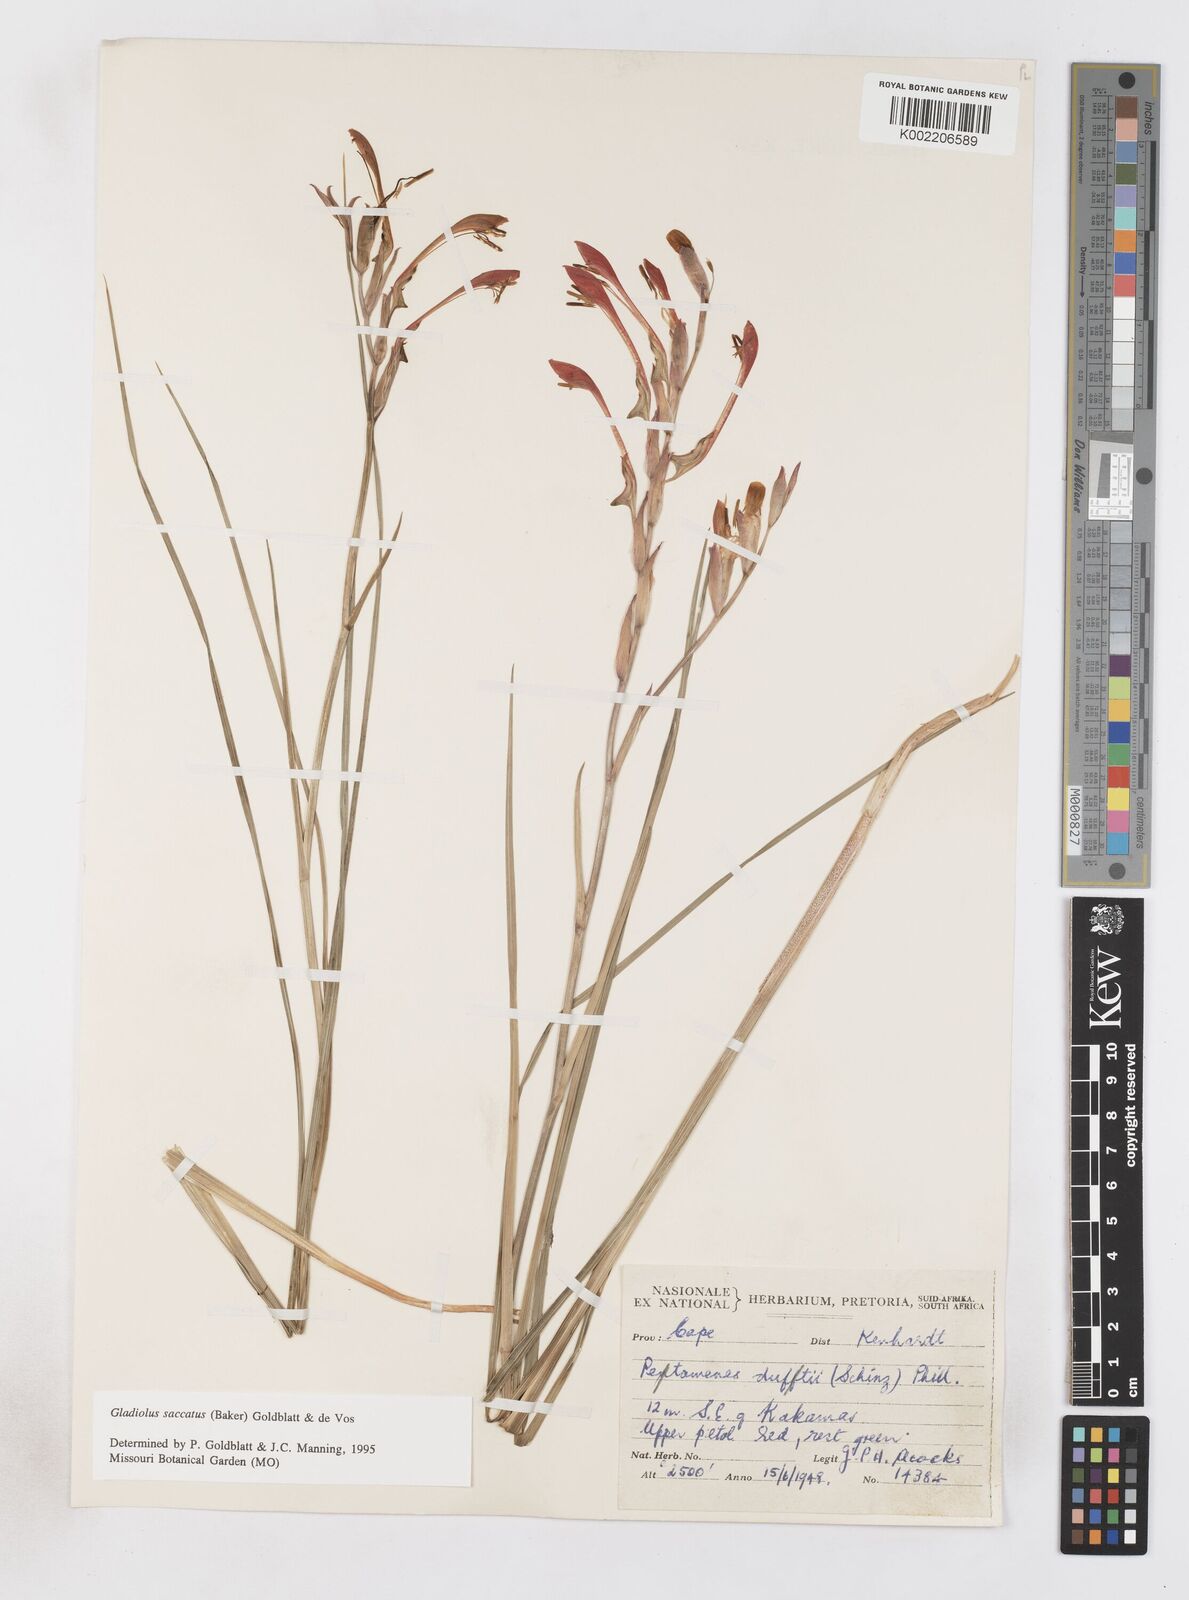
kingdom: Plantae
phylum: Tracheophyta
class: Liliopsida
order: Asparagales
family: Iridaceae
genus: Gladiolus
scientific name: Gladiolus saccatus
